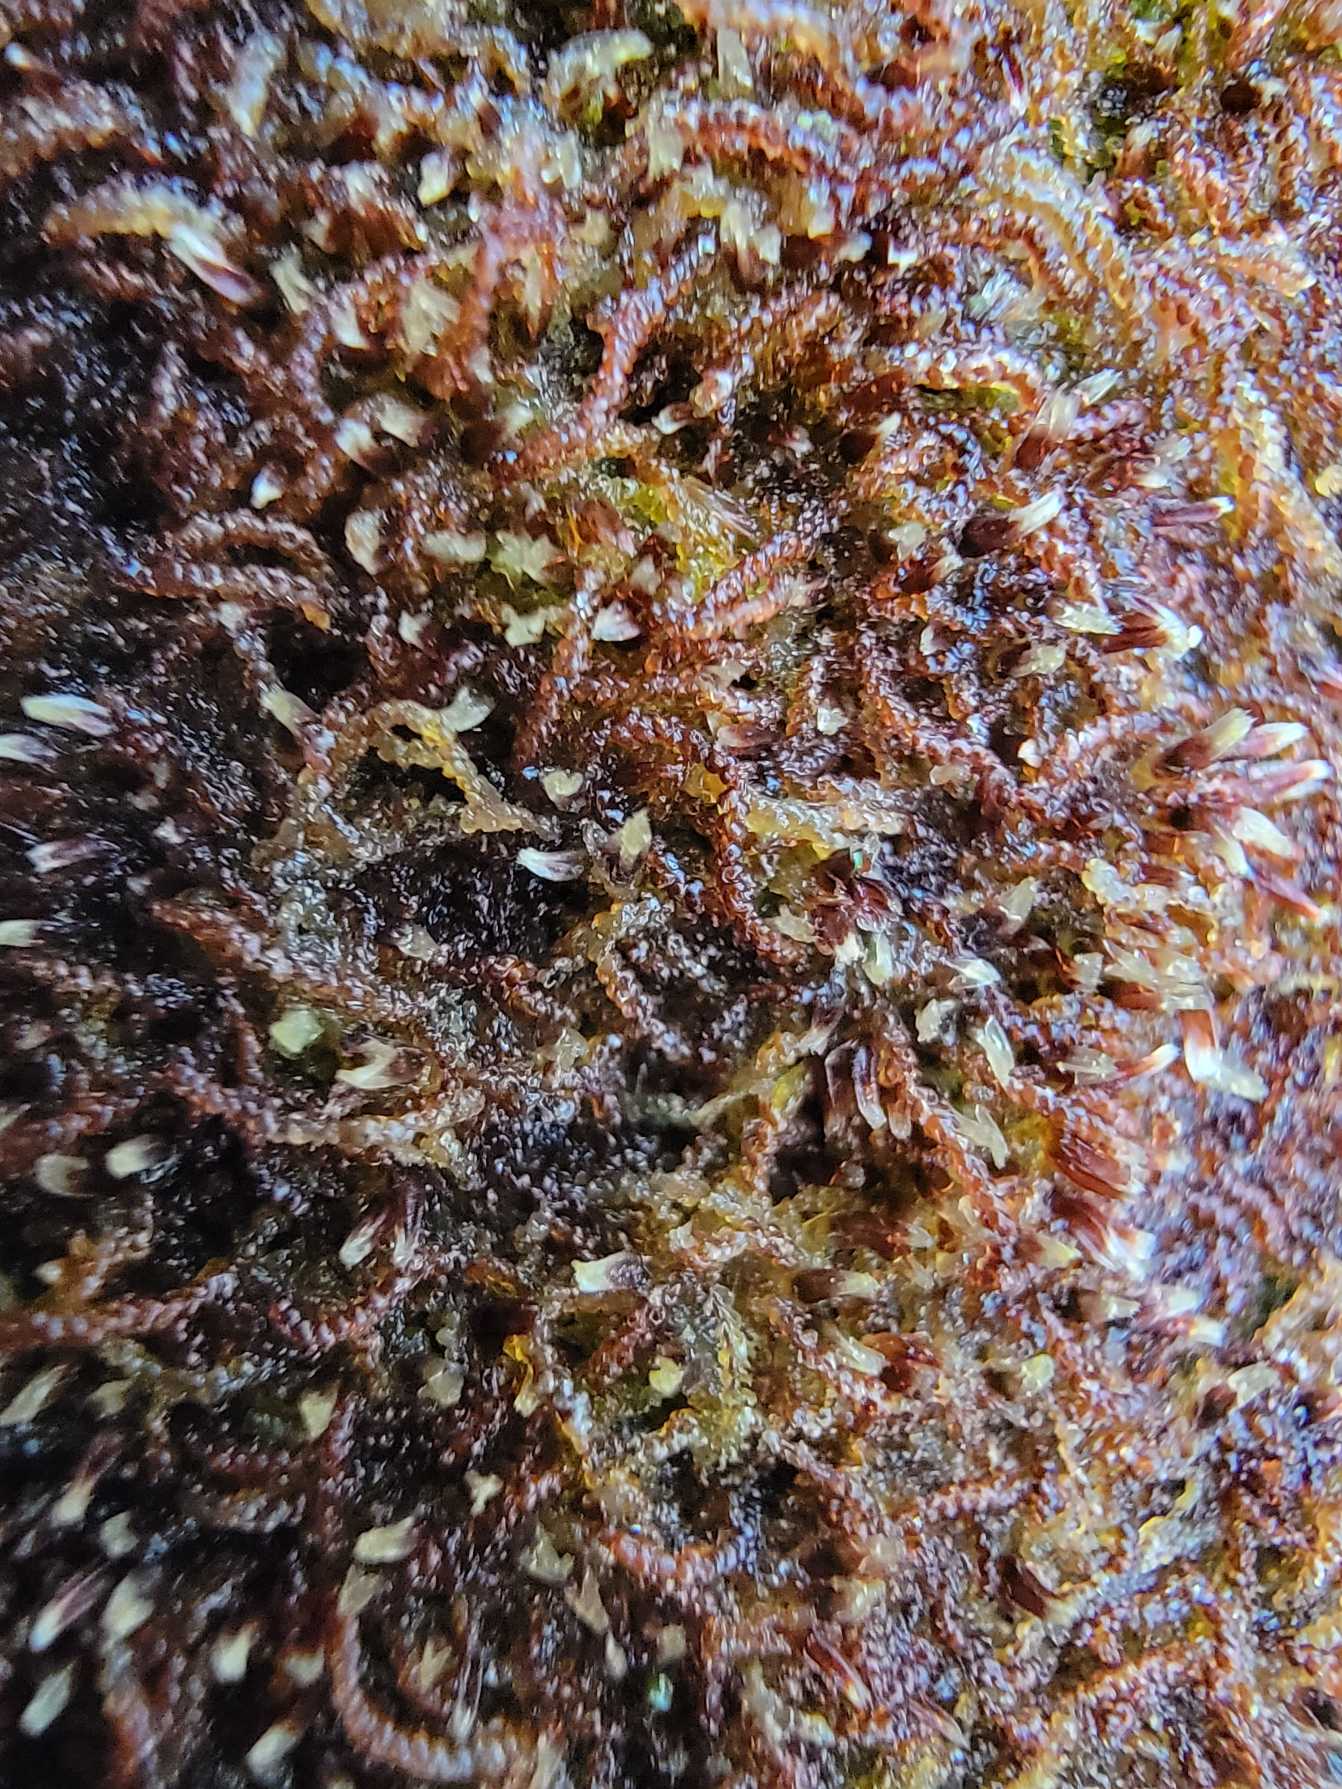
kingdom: Plantae
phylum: Marchantiophyta
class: Jungermanniopsida
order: Jungermanniales
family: Cephaloziaceae
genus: Nowellia
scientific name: Nowellia curvifolia
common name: Krumbladet stødmos
